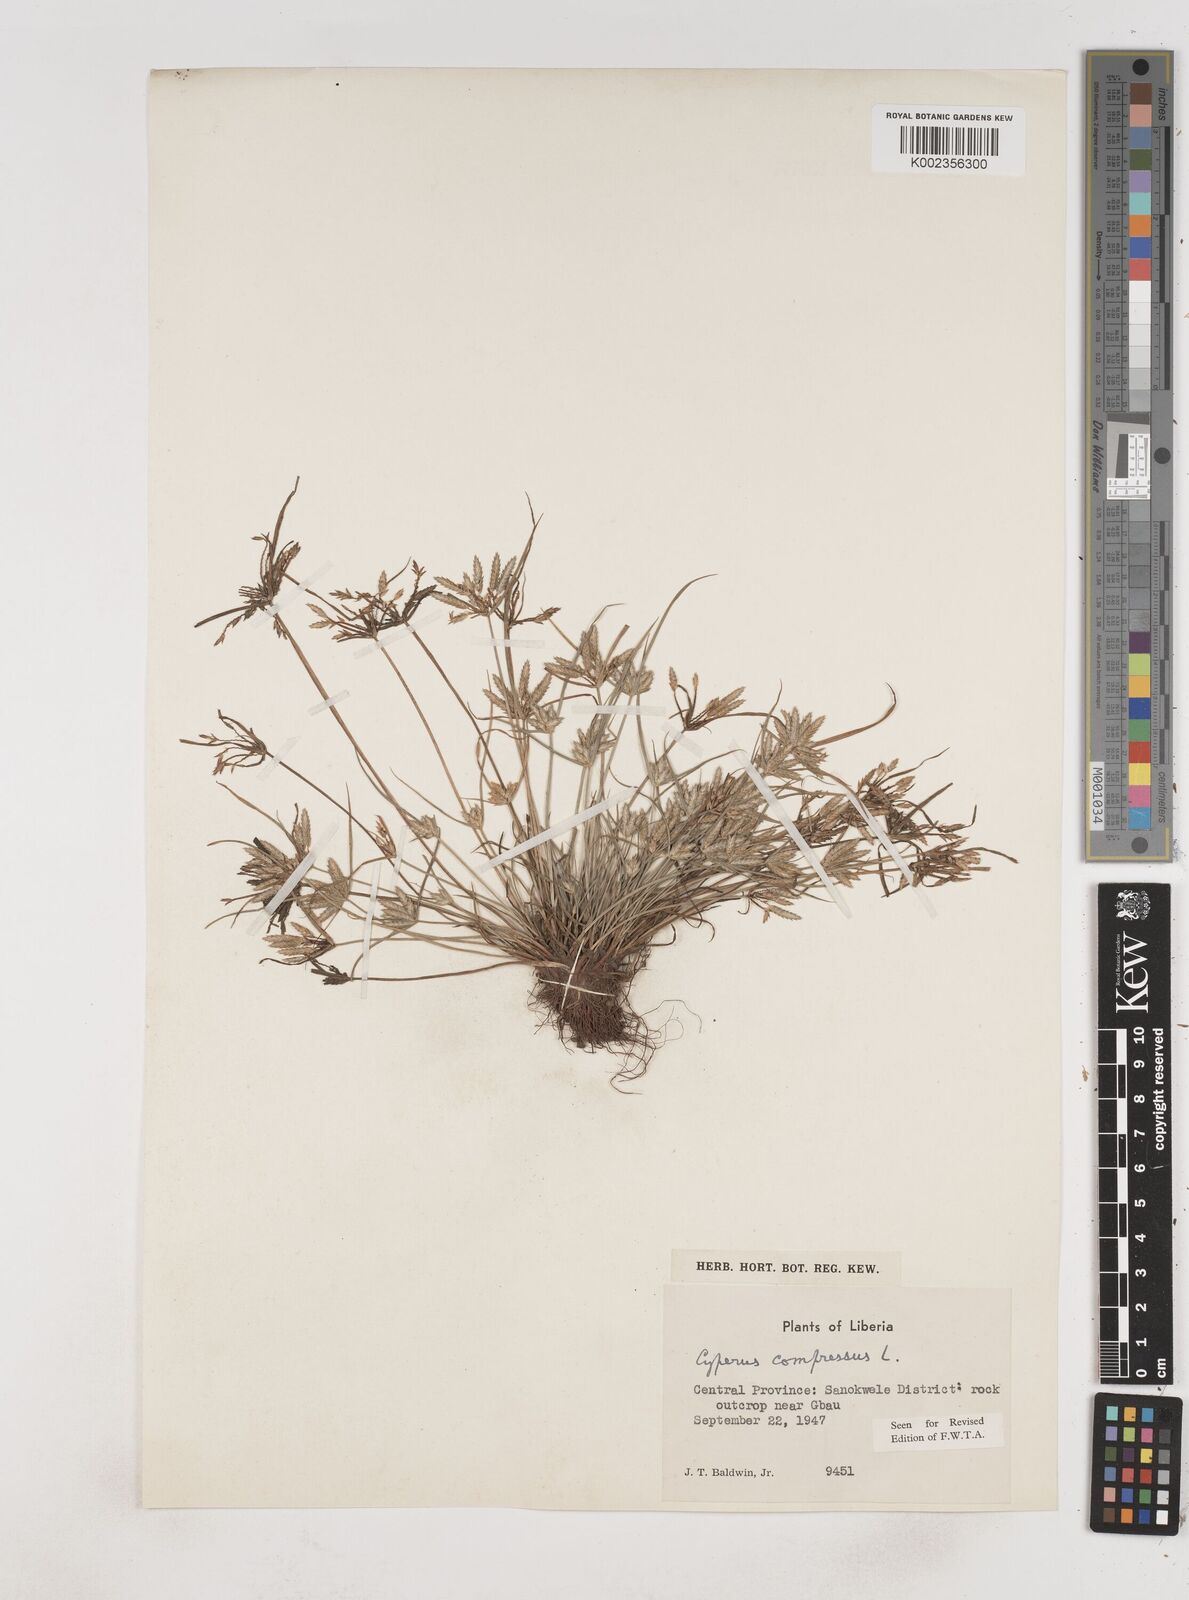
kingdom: Plantae
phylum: Tracheophyta
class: Liliopsida
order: Poales
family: Cyperaceae
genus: Cyperus
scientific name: Cyperus compressus
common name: Poorland flatsedge
